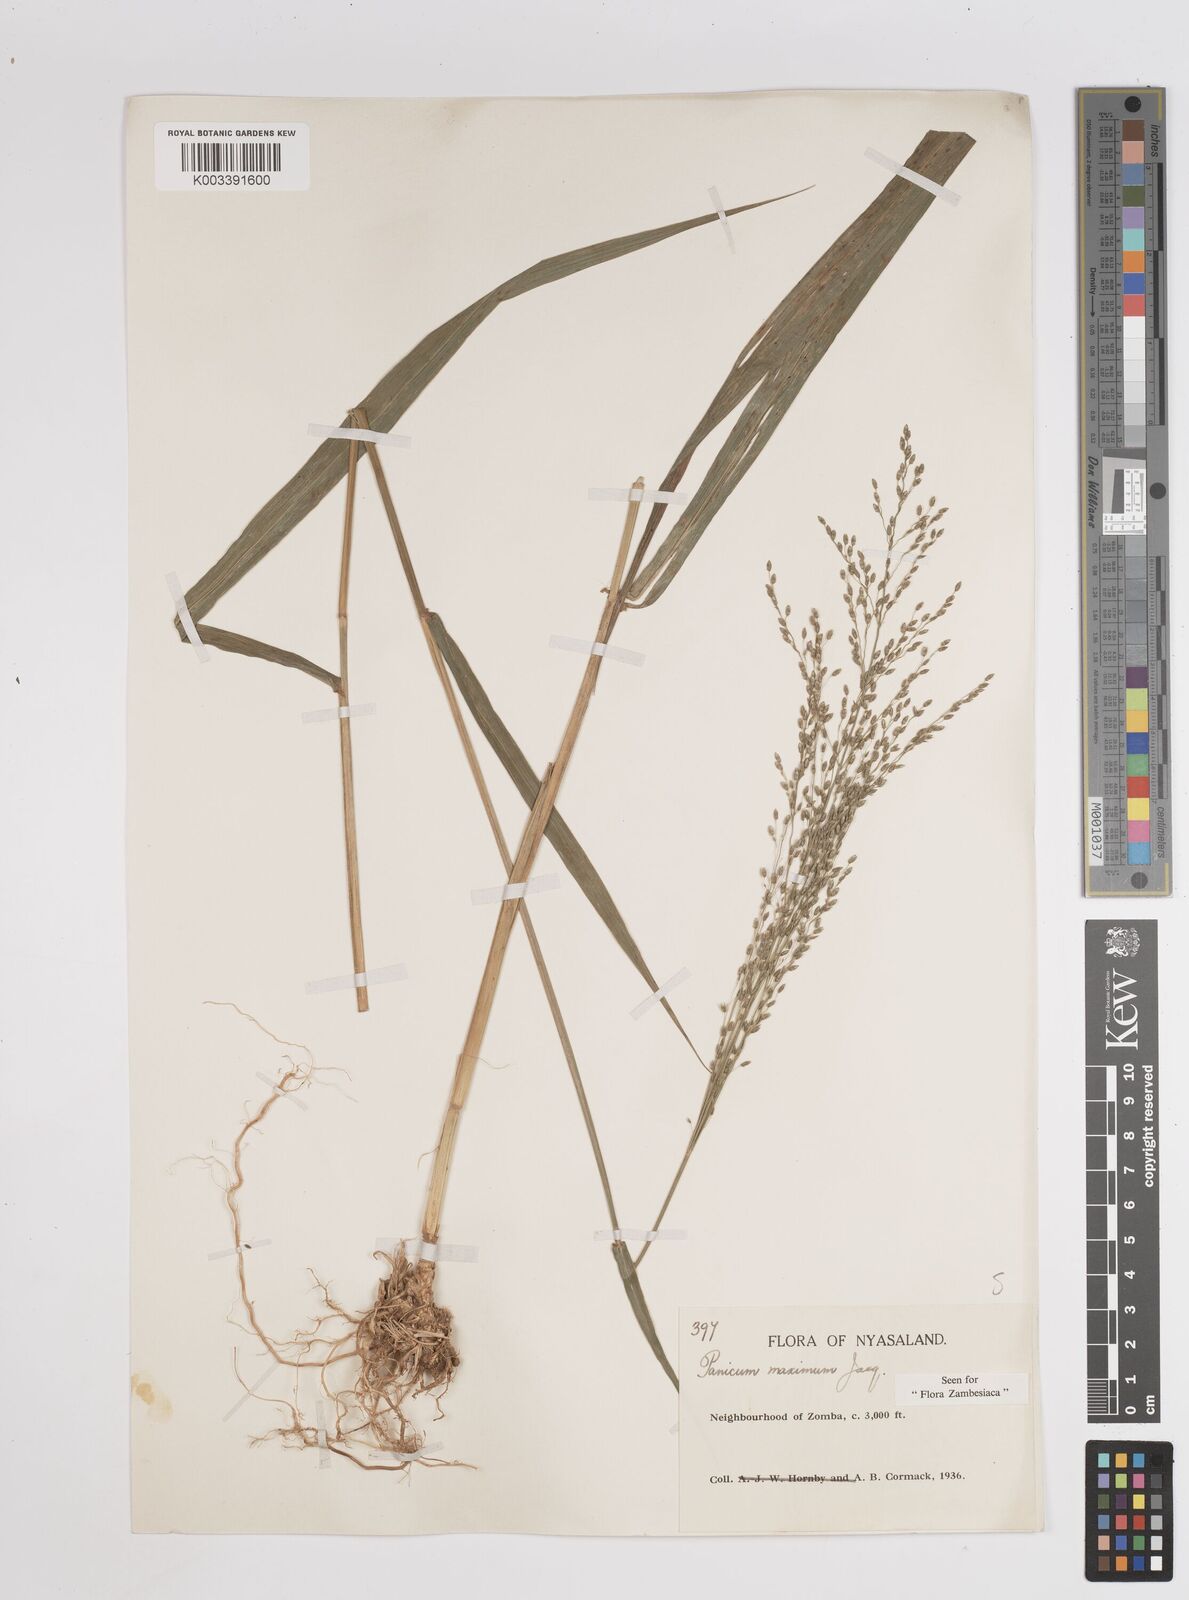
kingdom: Plantae
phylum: Tracheophyta
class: Liliopsida
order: Poales
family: Poaceae
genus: Megathyrsus
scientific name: Megathyrsus maximus
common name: Guineagrass
